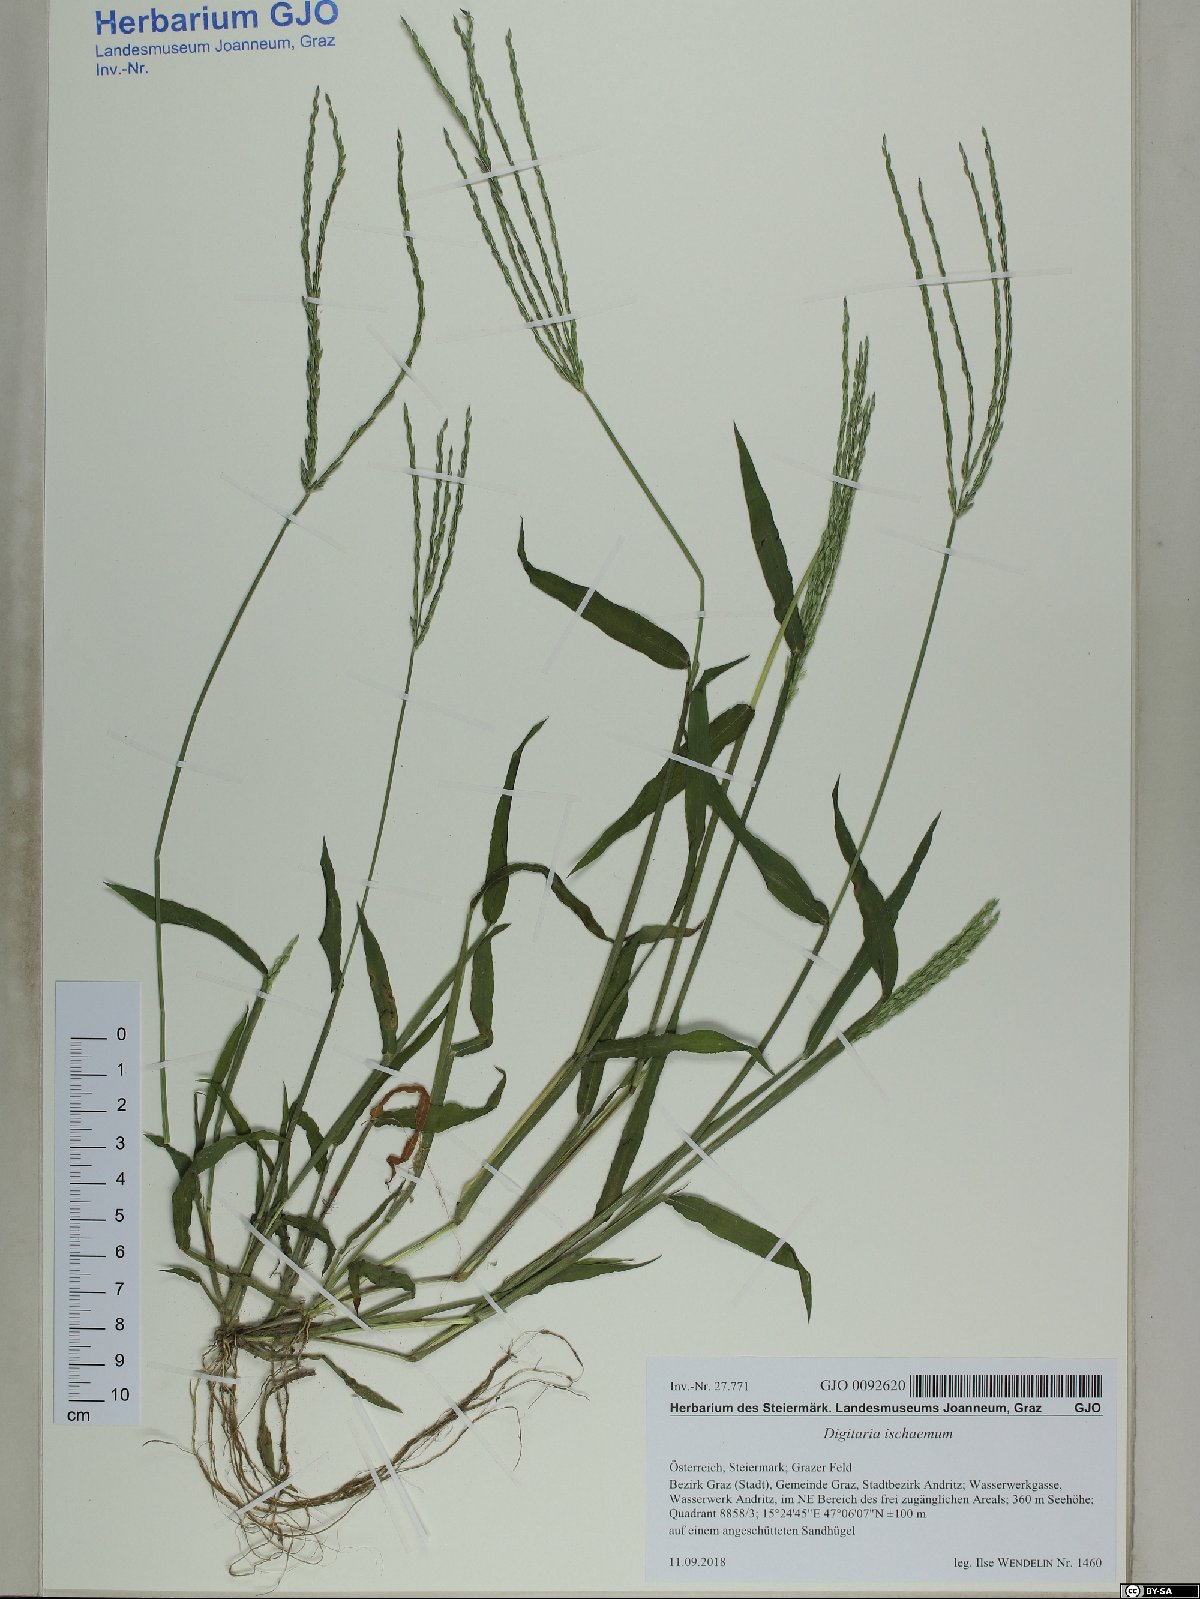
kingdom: Plantae
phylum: Tracheophyta
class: Liliopsida
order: Poales
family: Poaceae
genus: Digitaria
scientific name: Digitaria sanguinalis
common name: Hairy crabgrass
